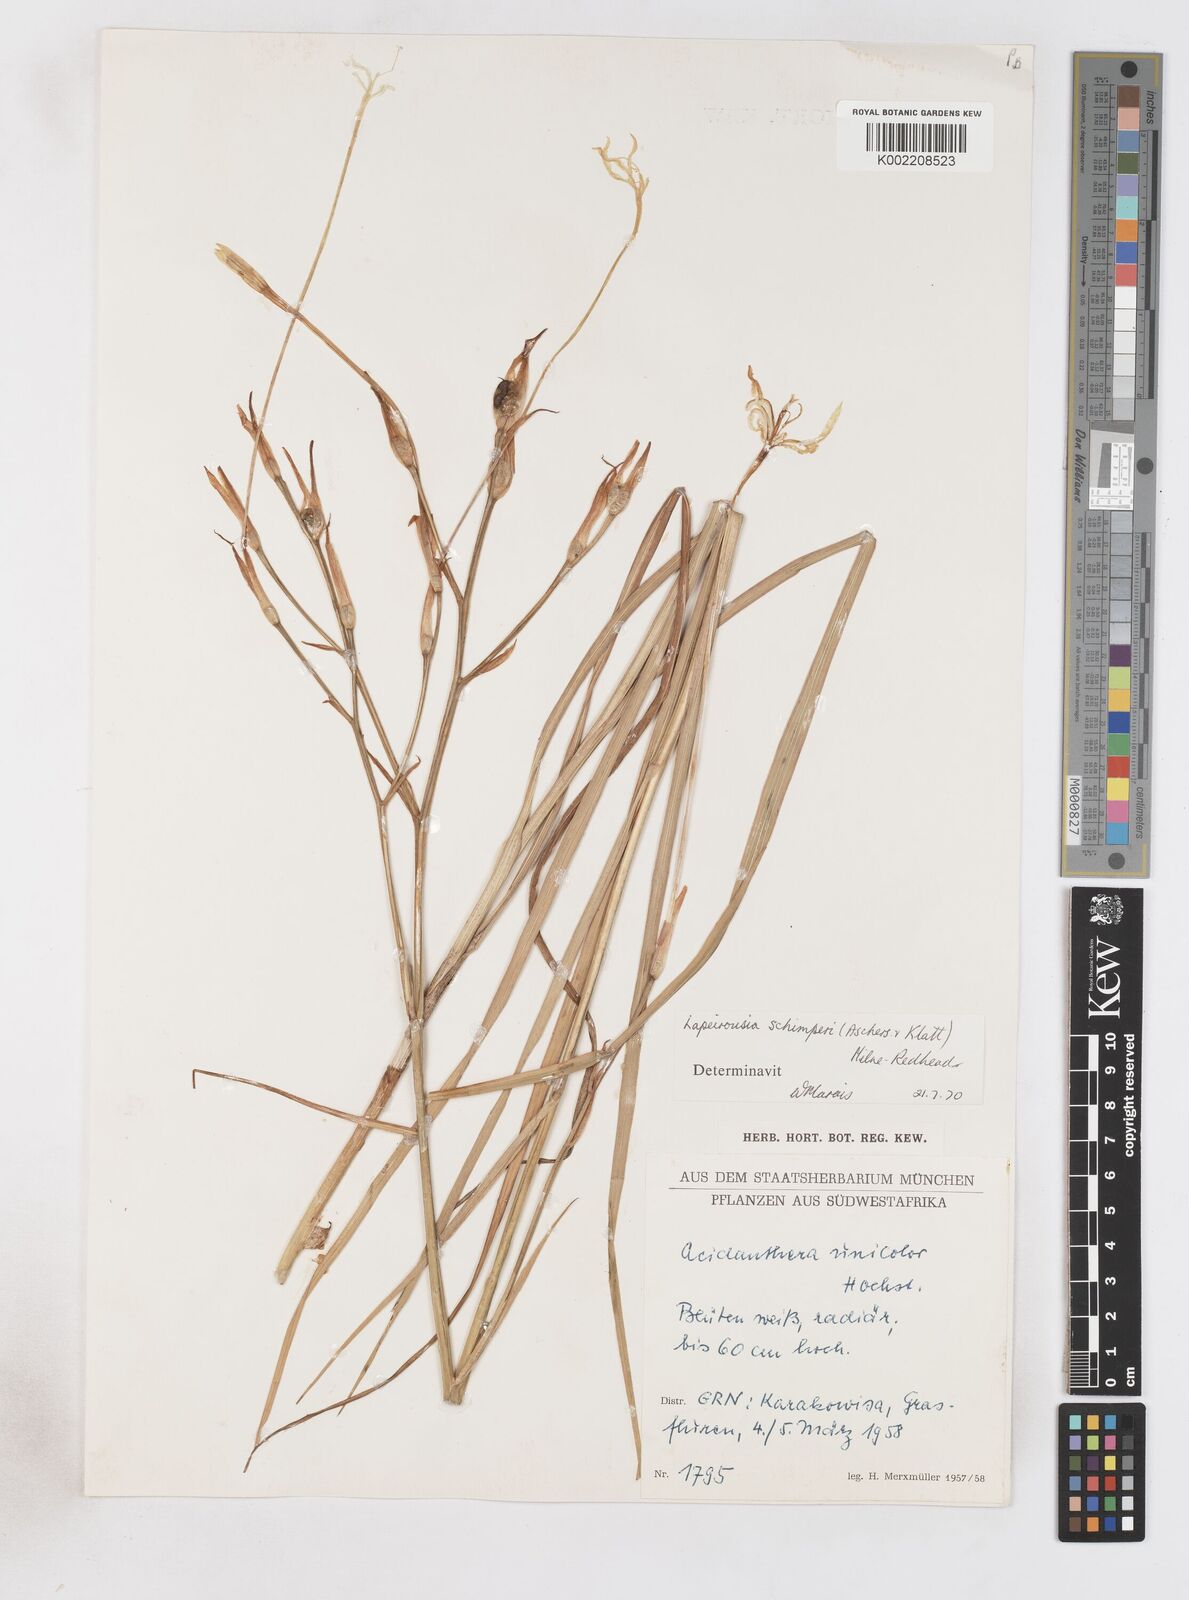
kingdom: Plantae
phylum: Tracheophyta
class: Liliopsida
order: Asparagales
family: Iridaceae
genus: Afrosolen
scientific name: Afrosolen schimperi
